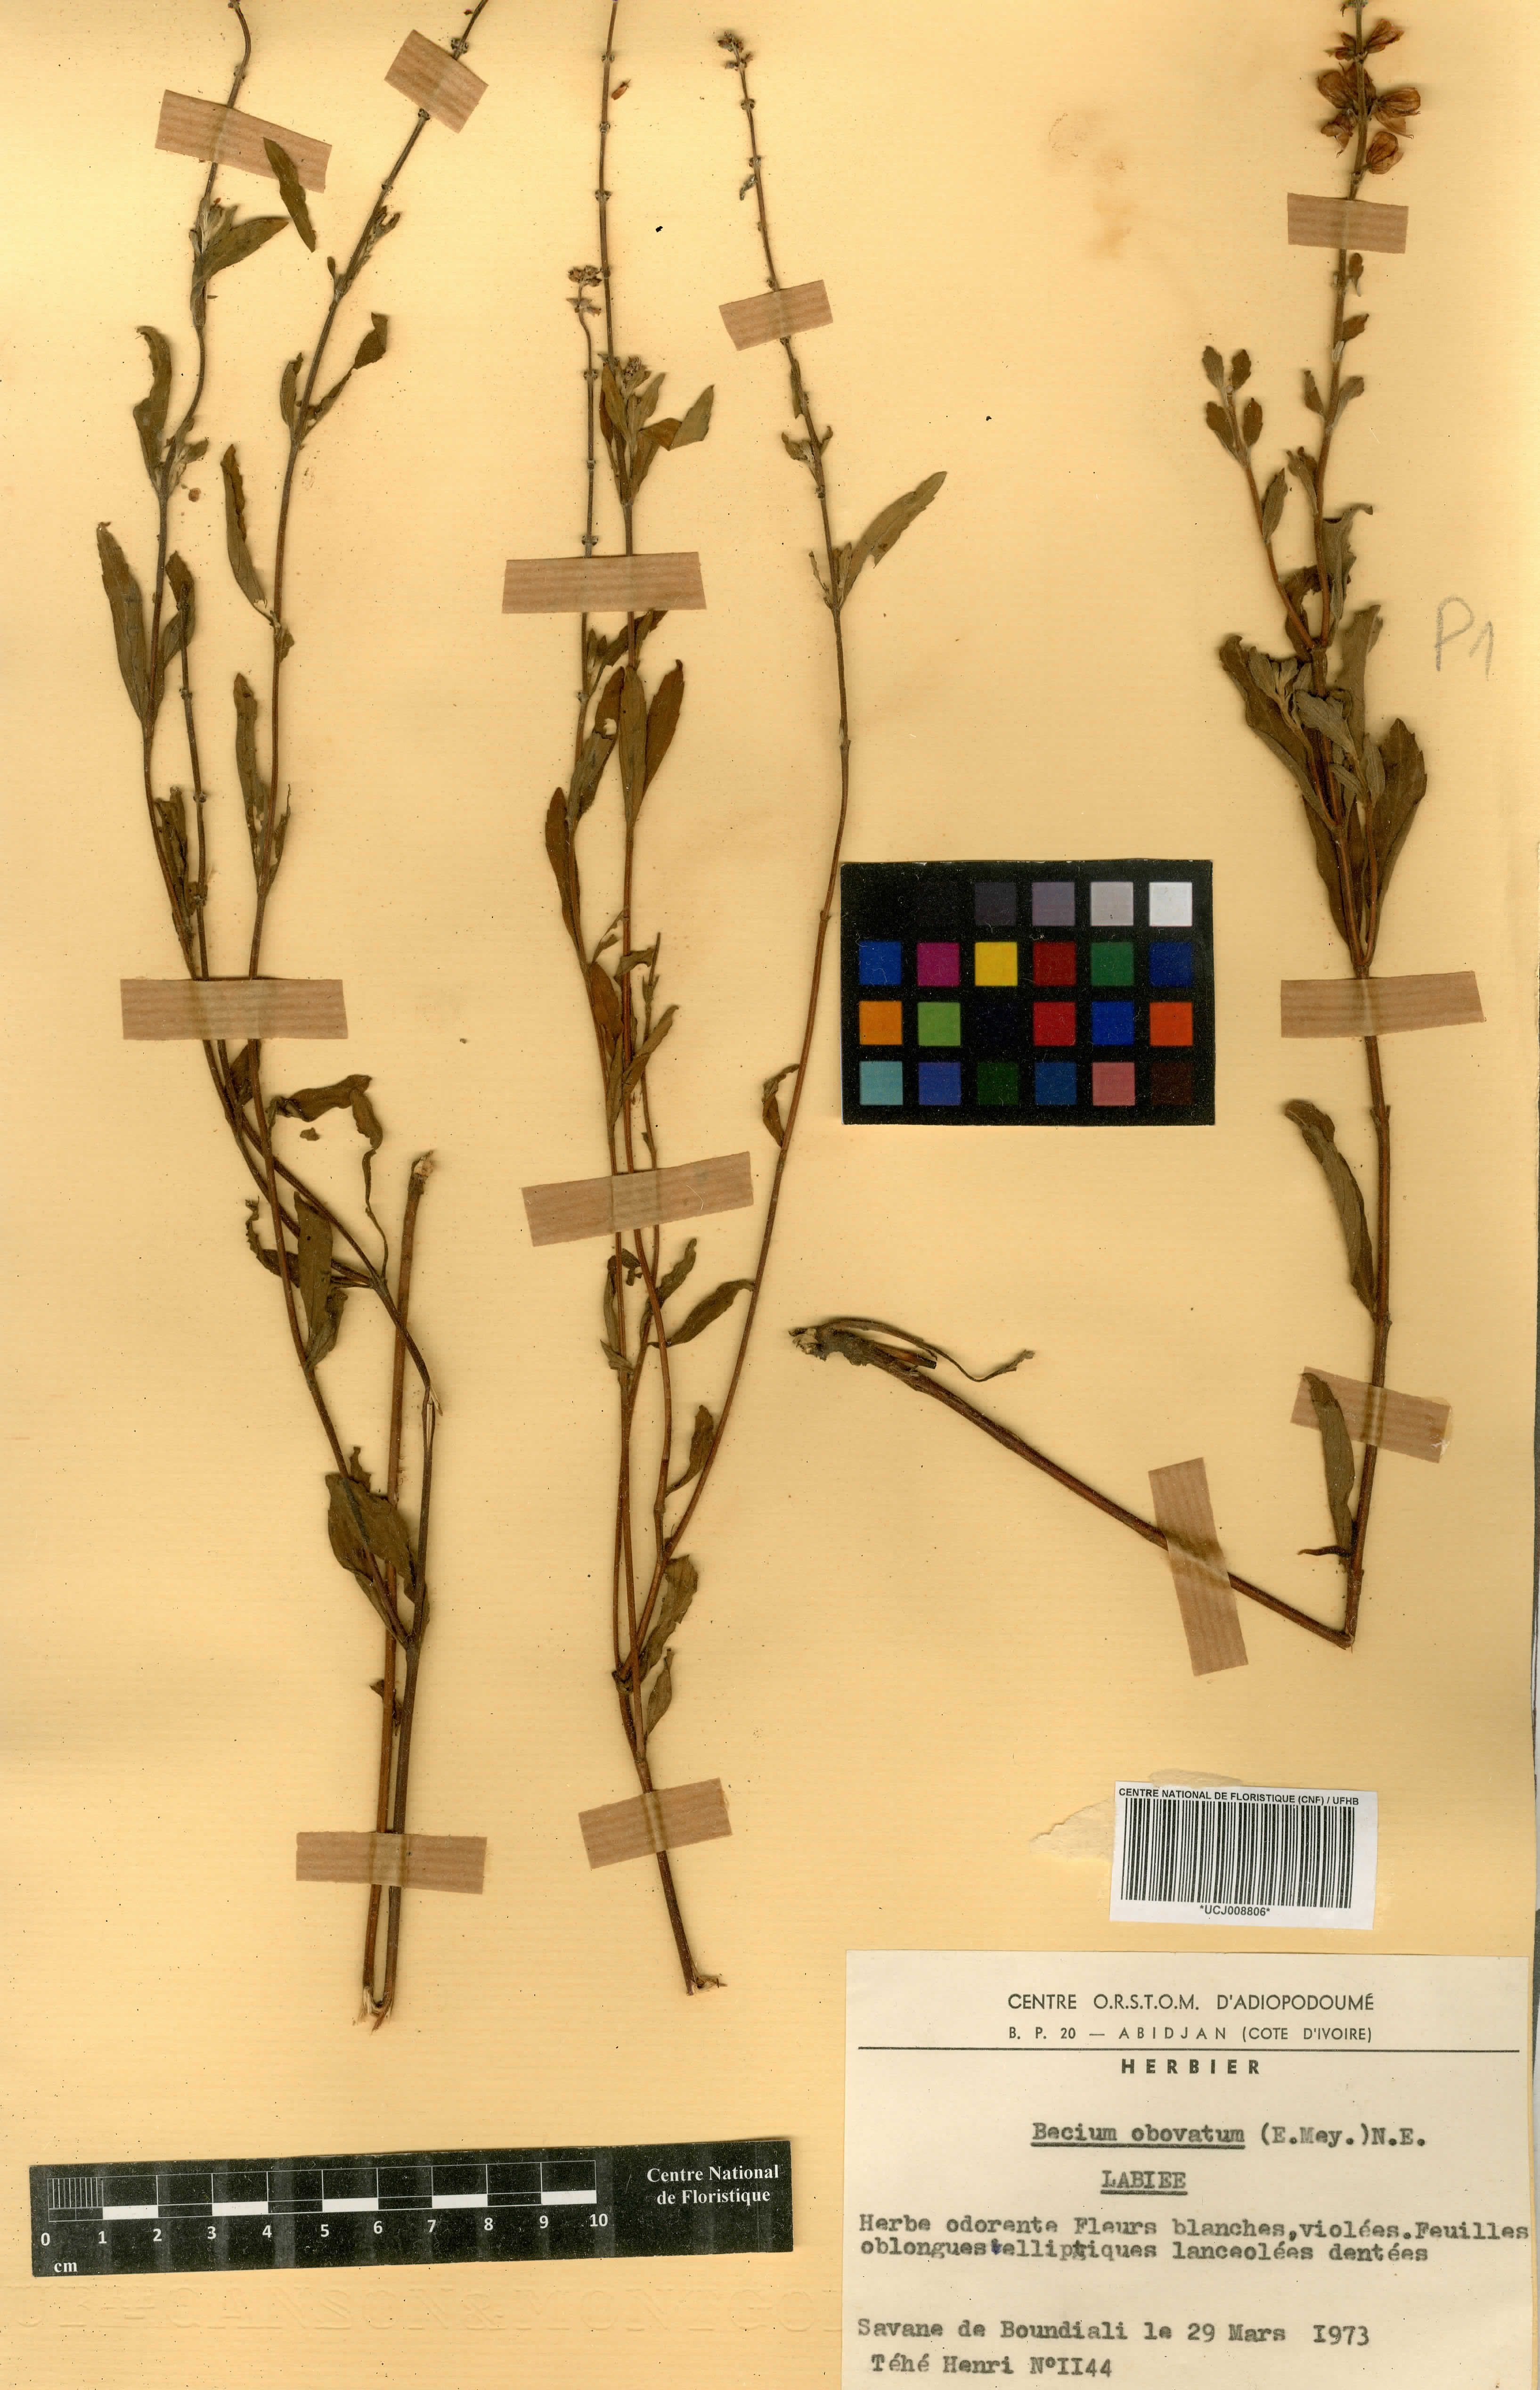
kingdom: Plantae
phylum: Tracheophyta
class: Magnoliopsida
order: Lamiales
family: Lamiaceae
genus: Ocimum
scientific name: Ocimum obovatum
